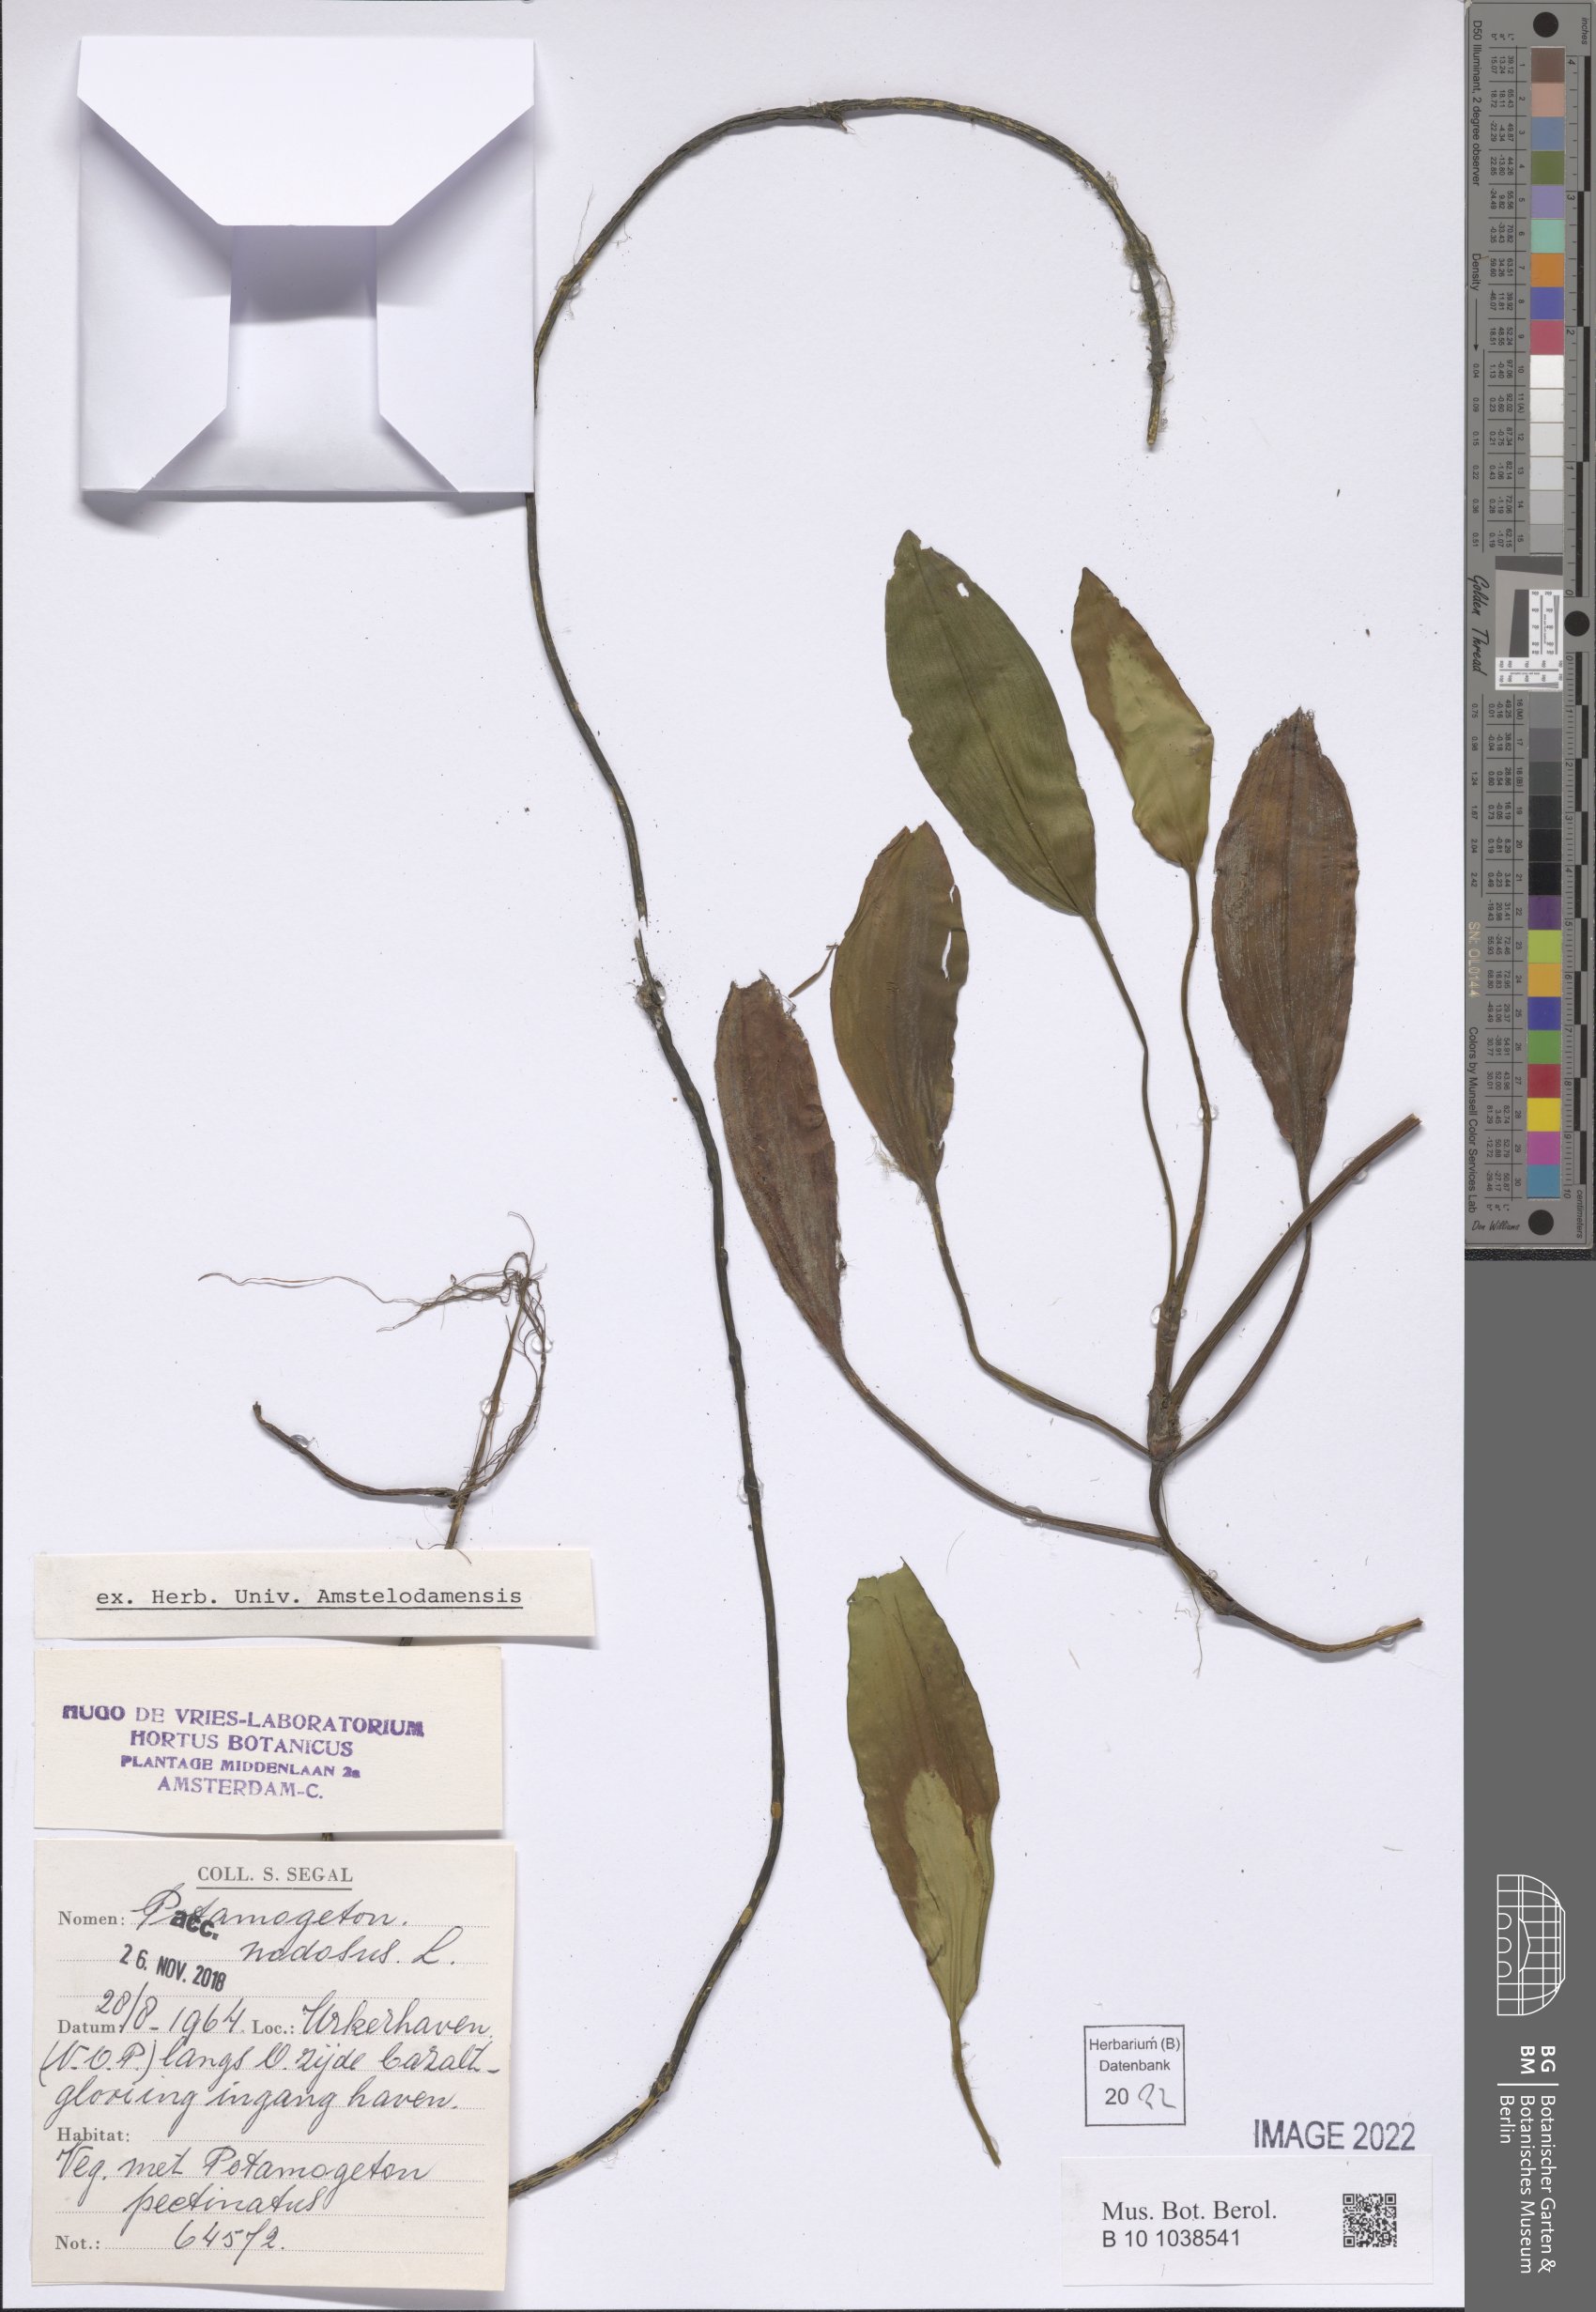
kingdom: Plantae
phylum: Tracheophyta
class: Liliopsida
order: Alismatales
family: Potamogetonaceae
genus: Potamogeton
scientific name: Potamogeton nodosus
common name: Loddon pondweed
